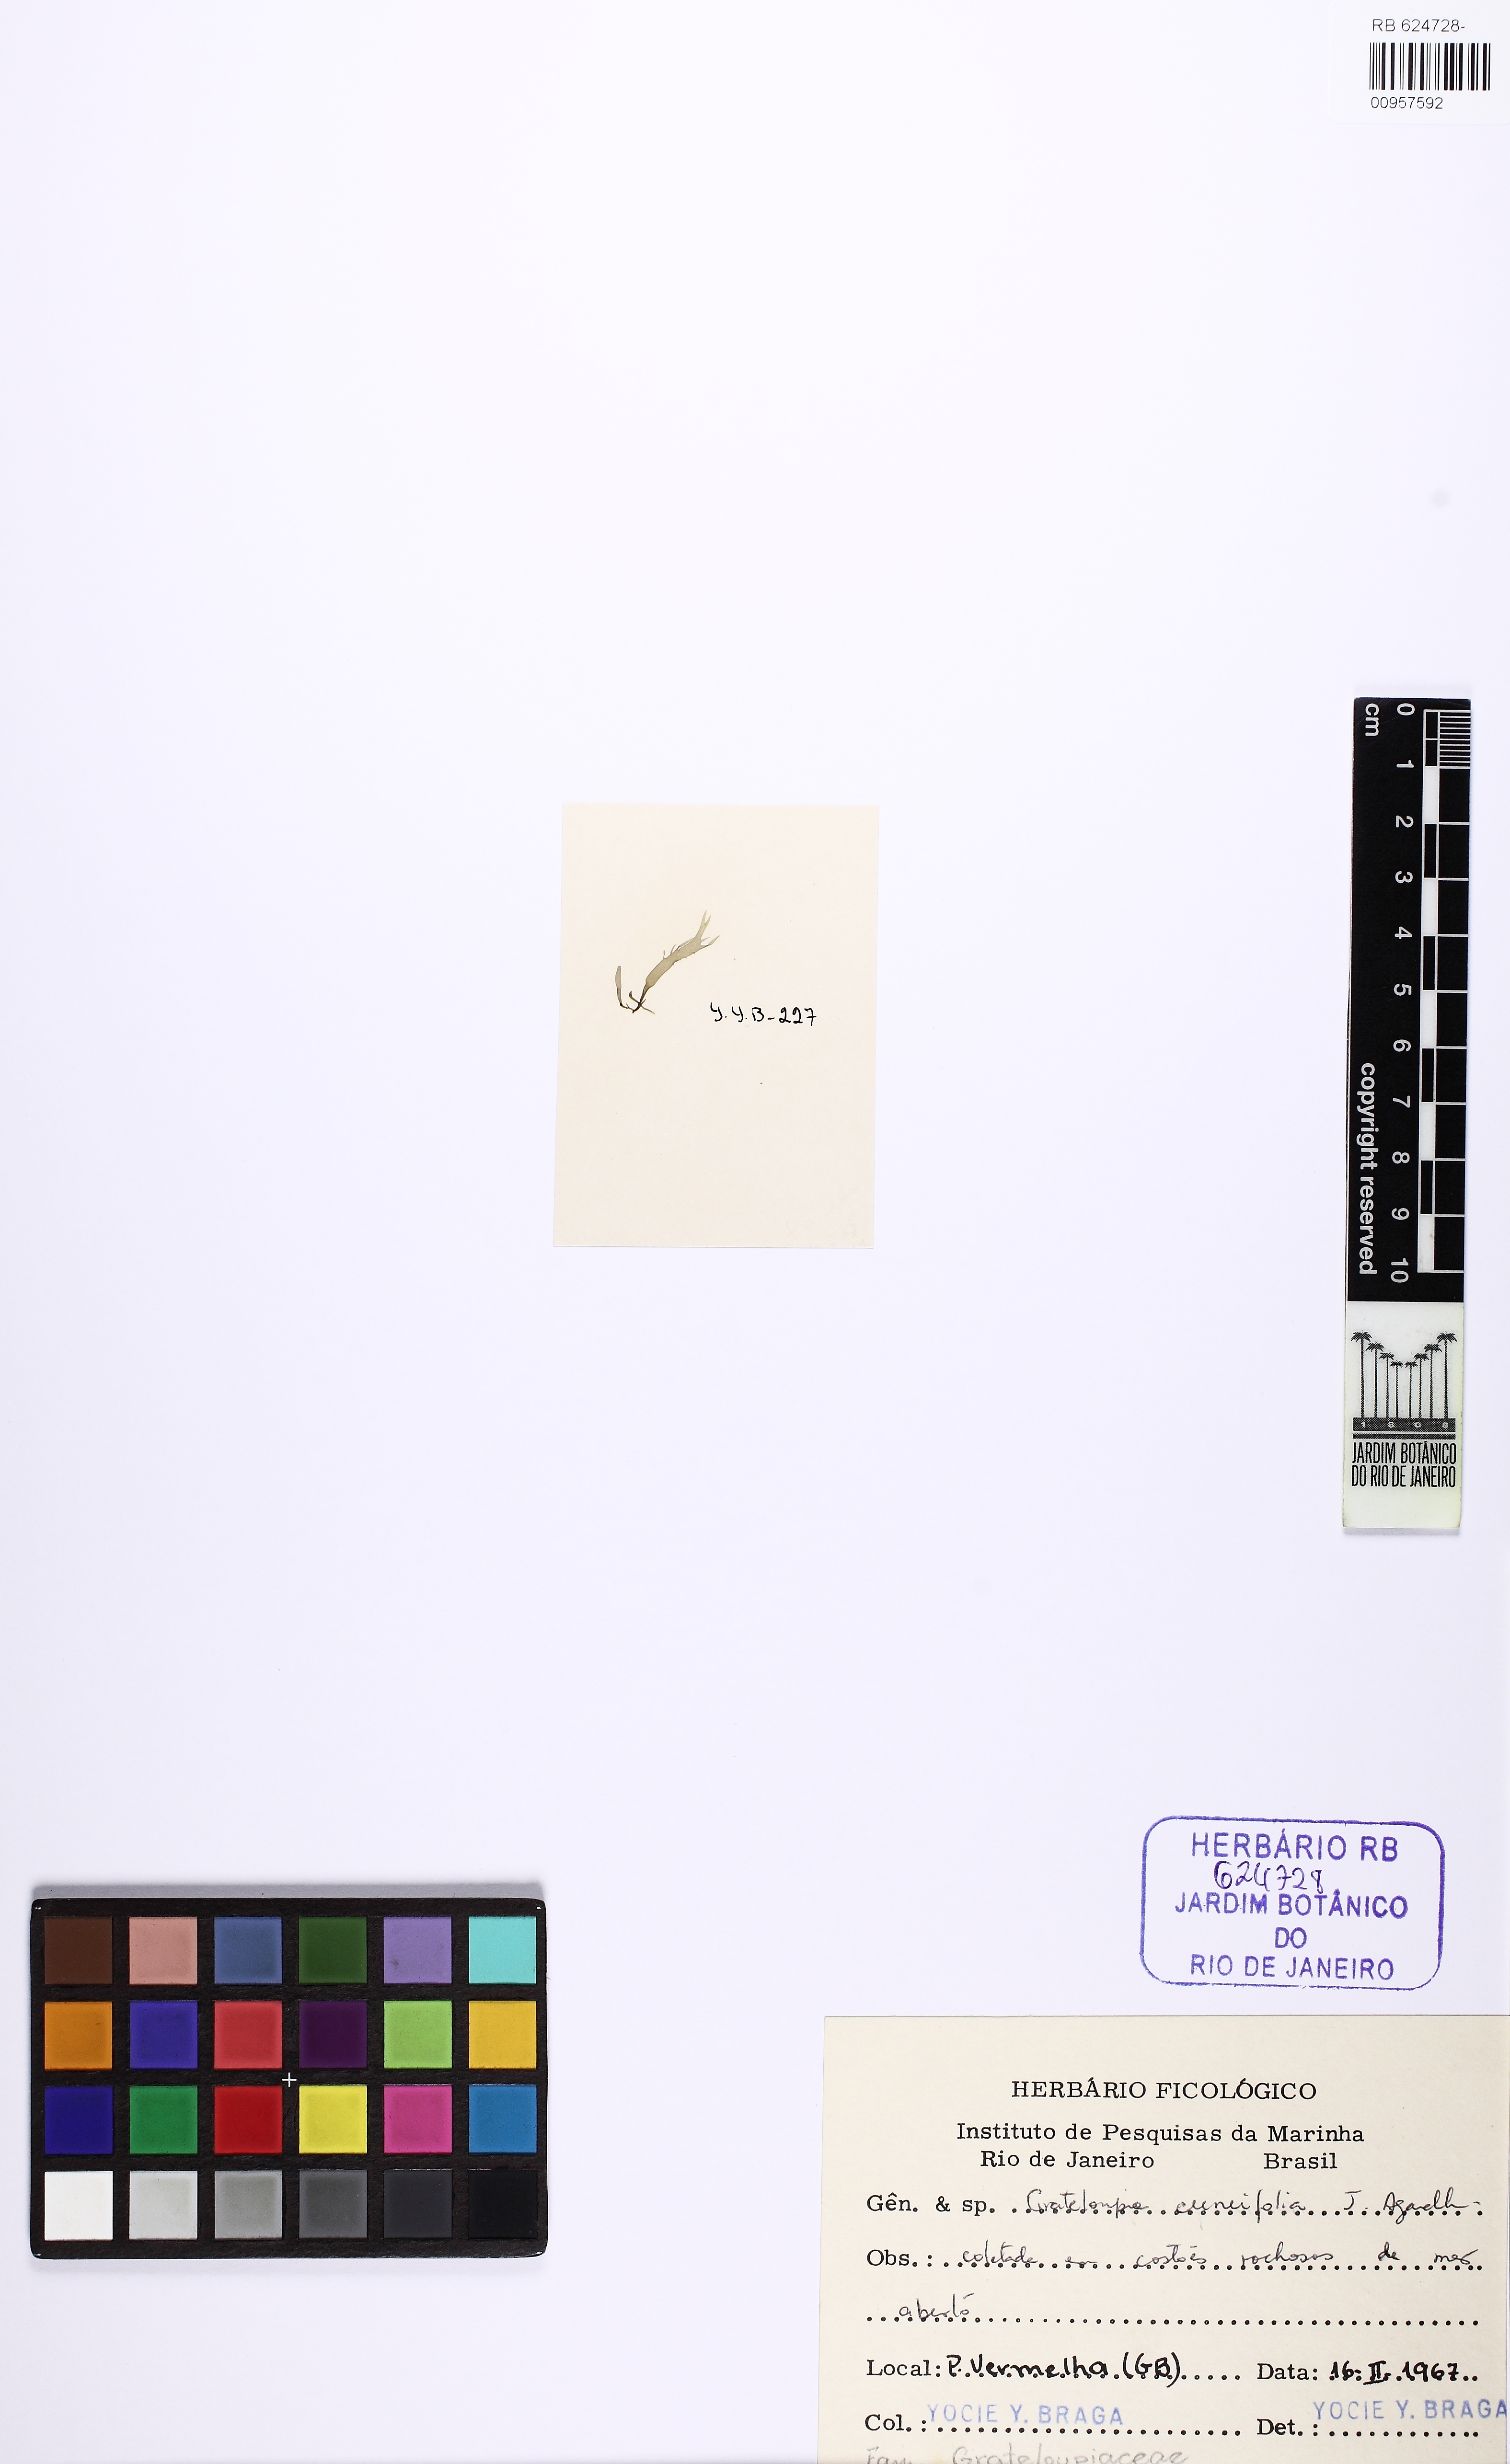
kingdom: Plantae
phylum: Rhodophyta
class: Florideophyceae
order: Halymeniales
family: Halymeniaceae
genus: Grateloupia
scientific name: Grateloupia cuneifolia
